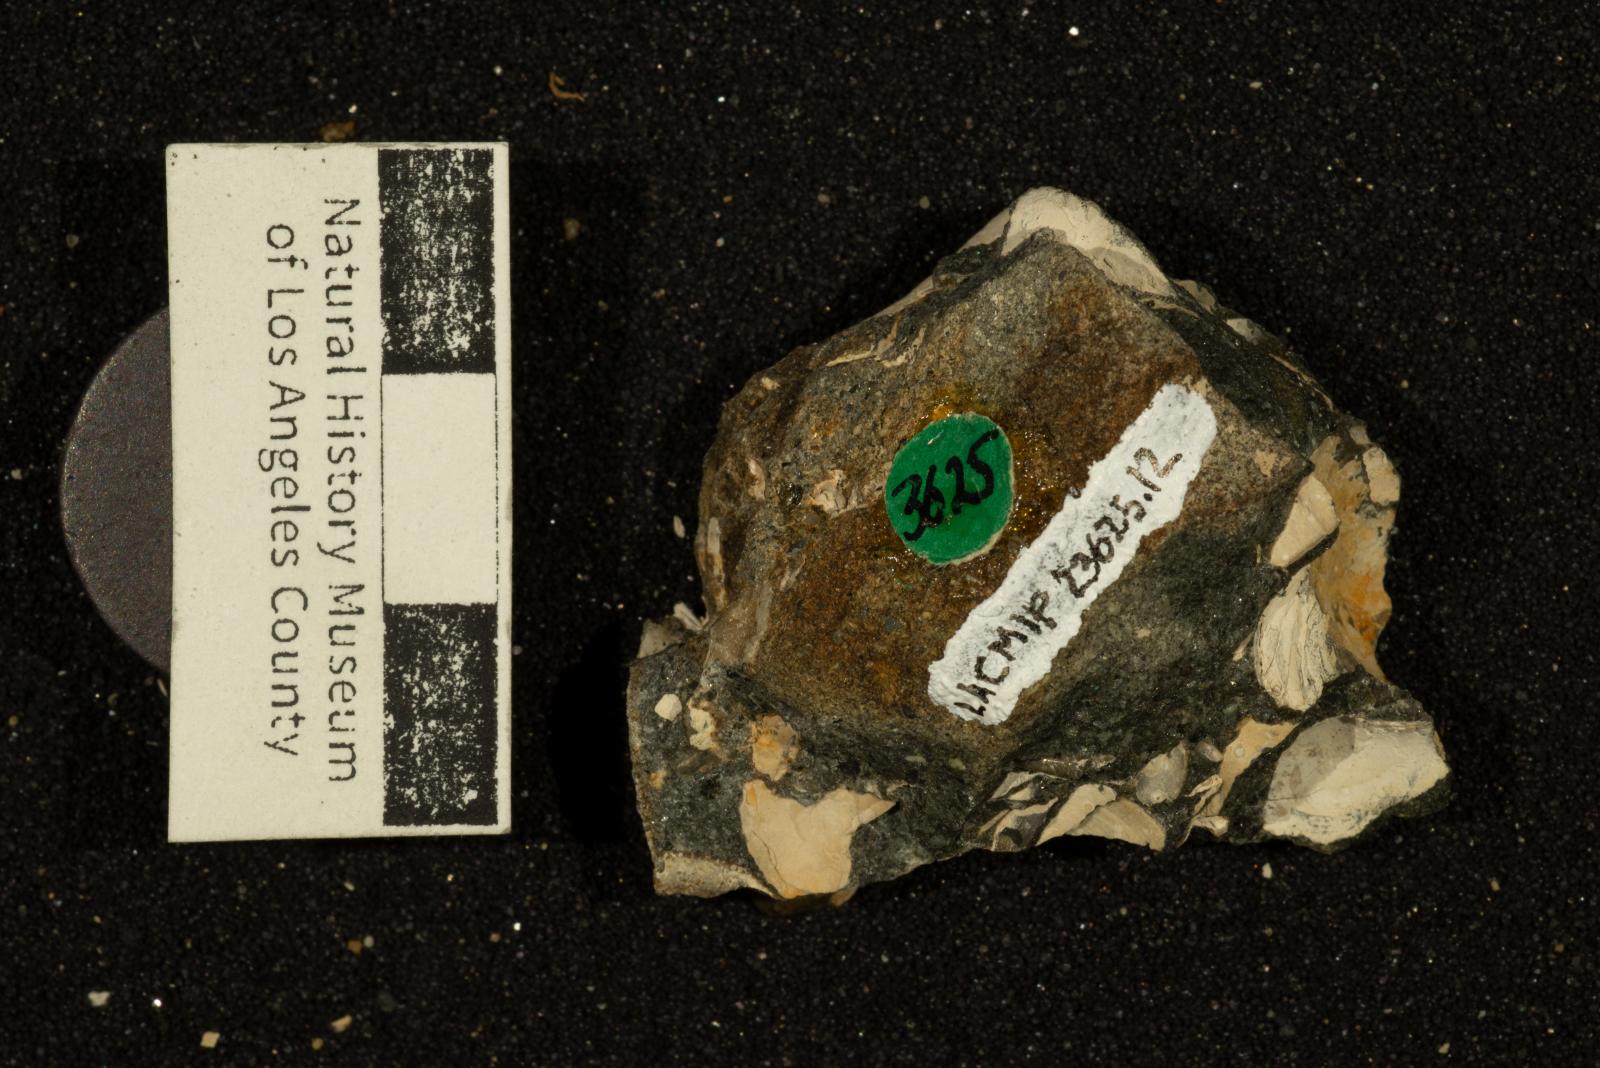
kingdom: Animalia
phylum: Mollusca
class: Bivalvia
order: Venerida
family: Mactridae
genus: Cymbophora
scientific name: Cymbophora Mactra gabbiana
